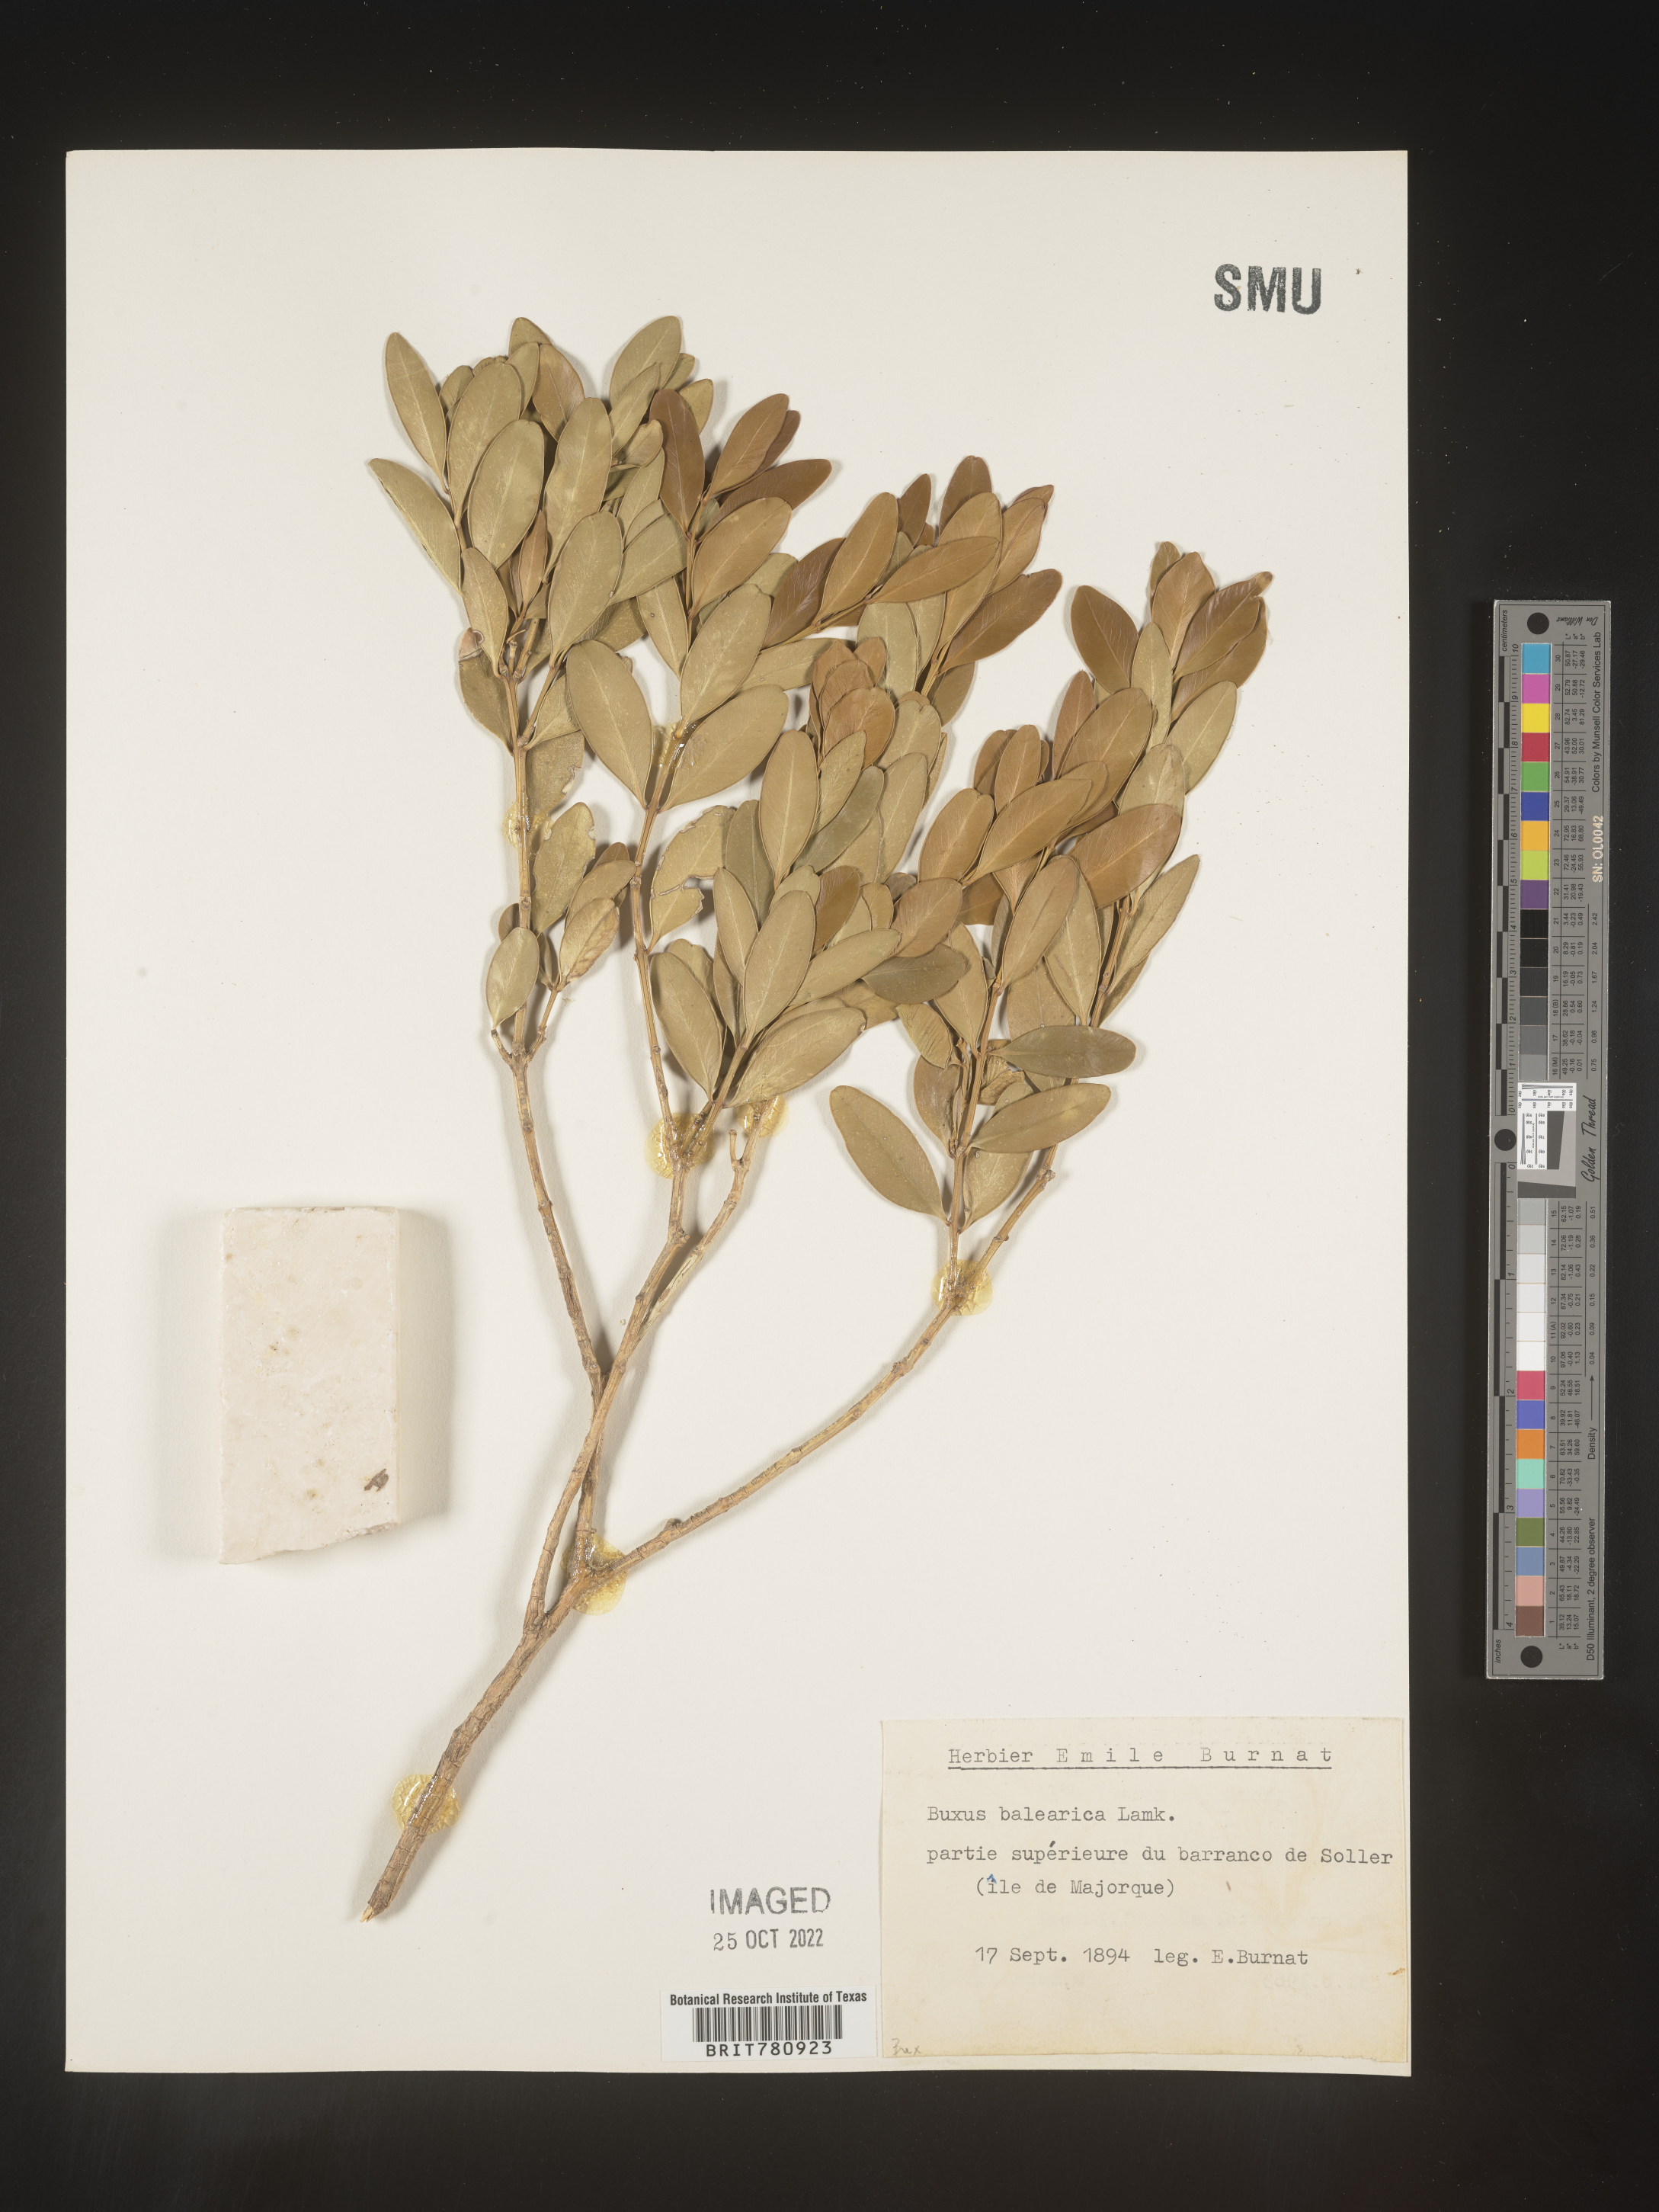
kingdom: Plantae
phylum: Tracheophyta
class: Magnoliopsida
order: Buxales
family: Buxaceae
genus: Buxus
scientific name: Buxus
